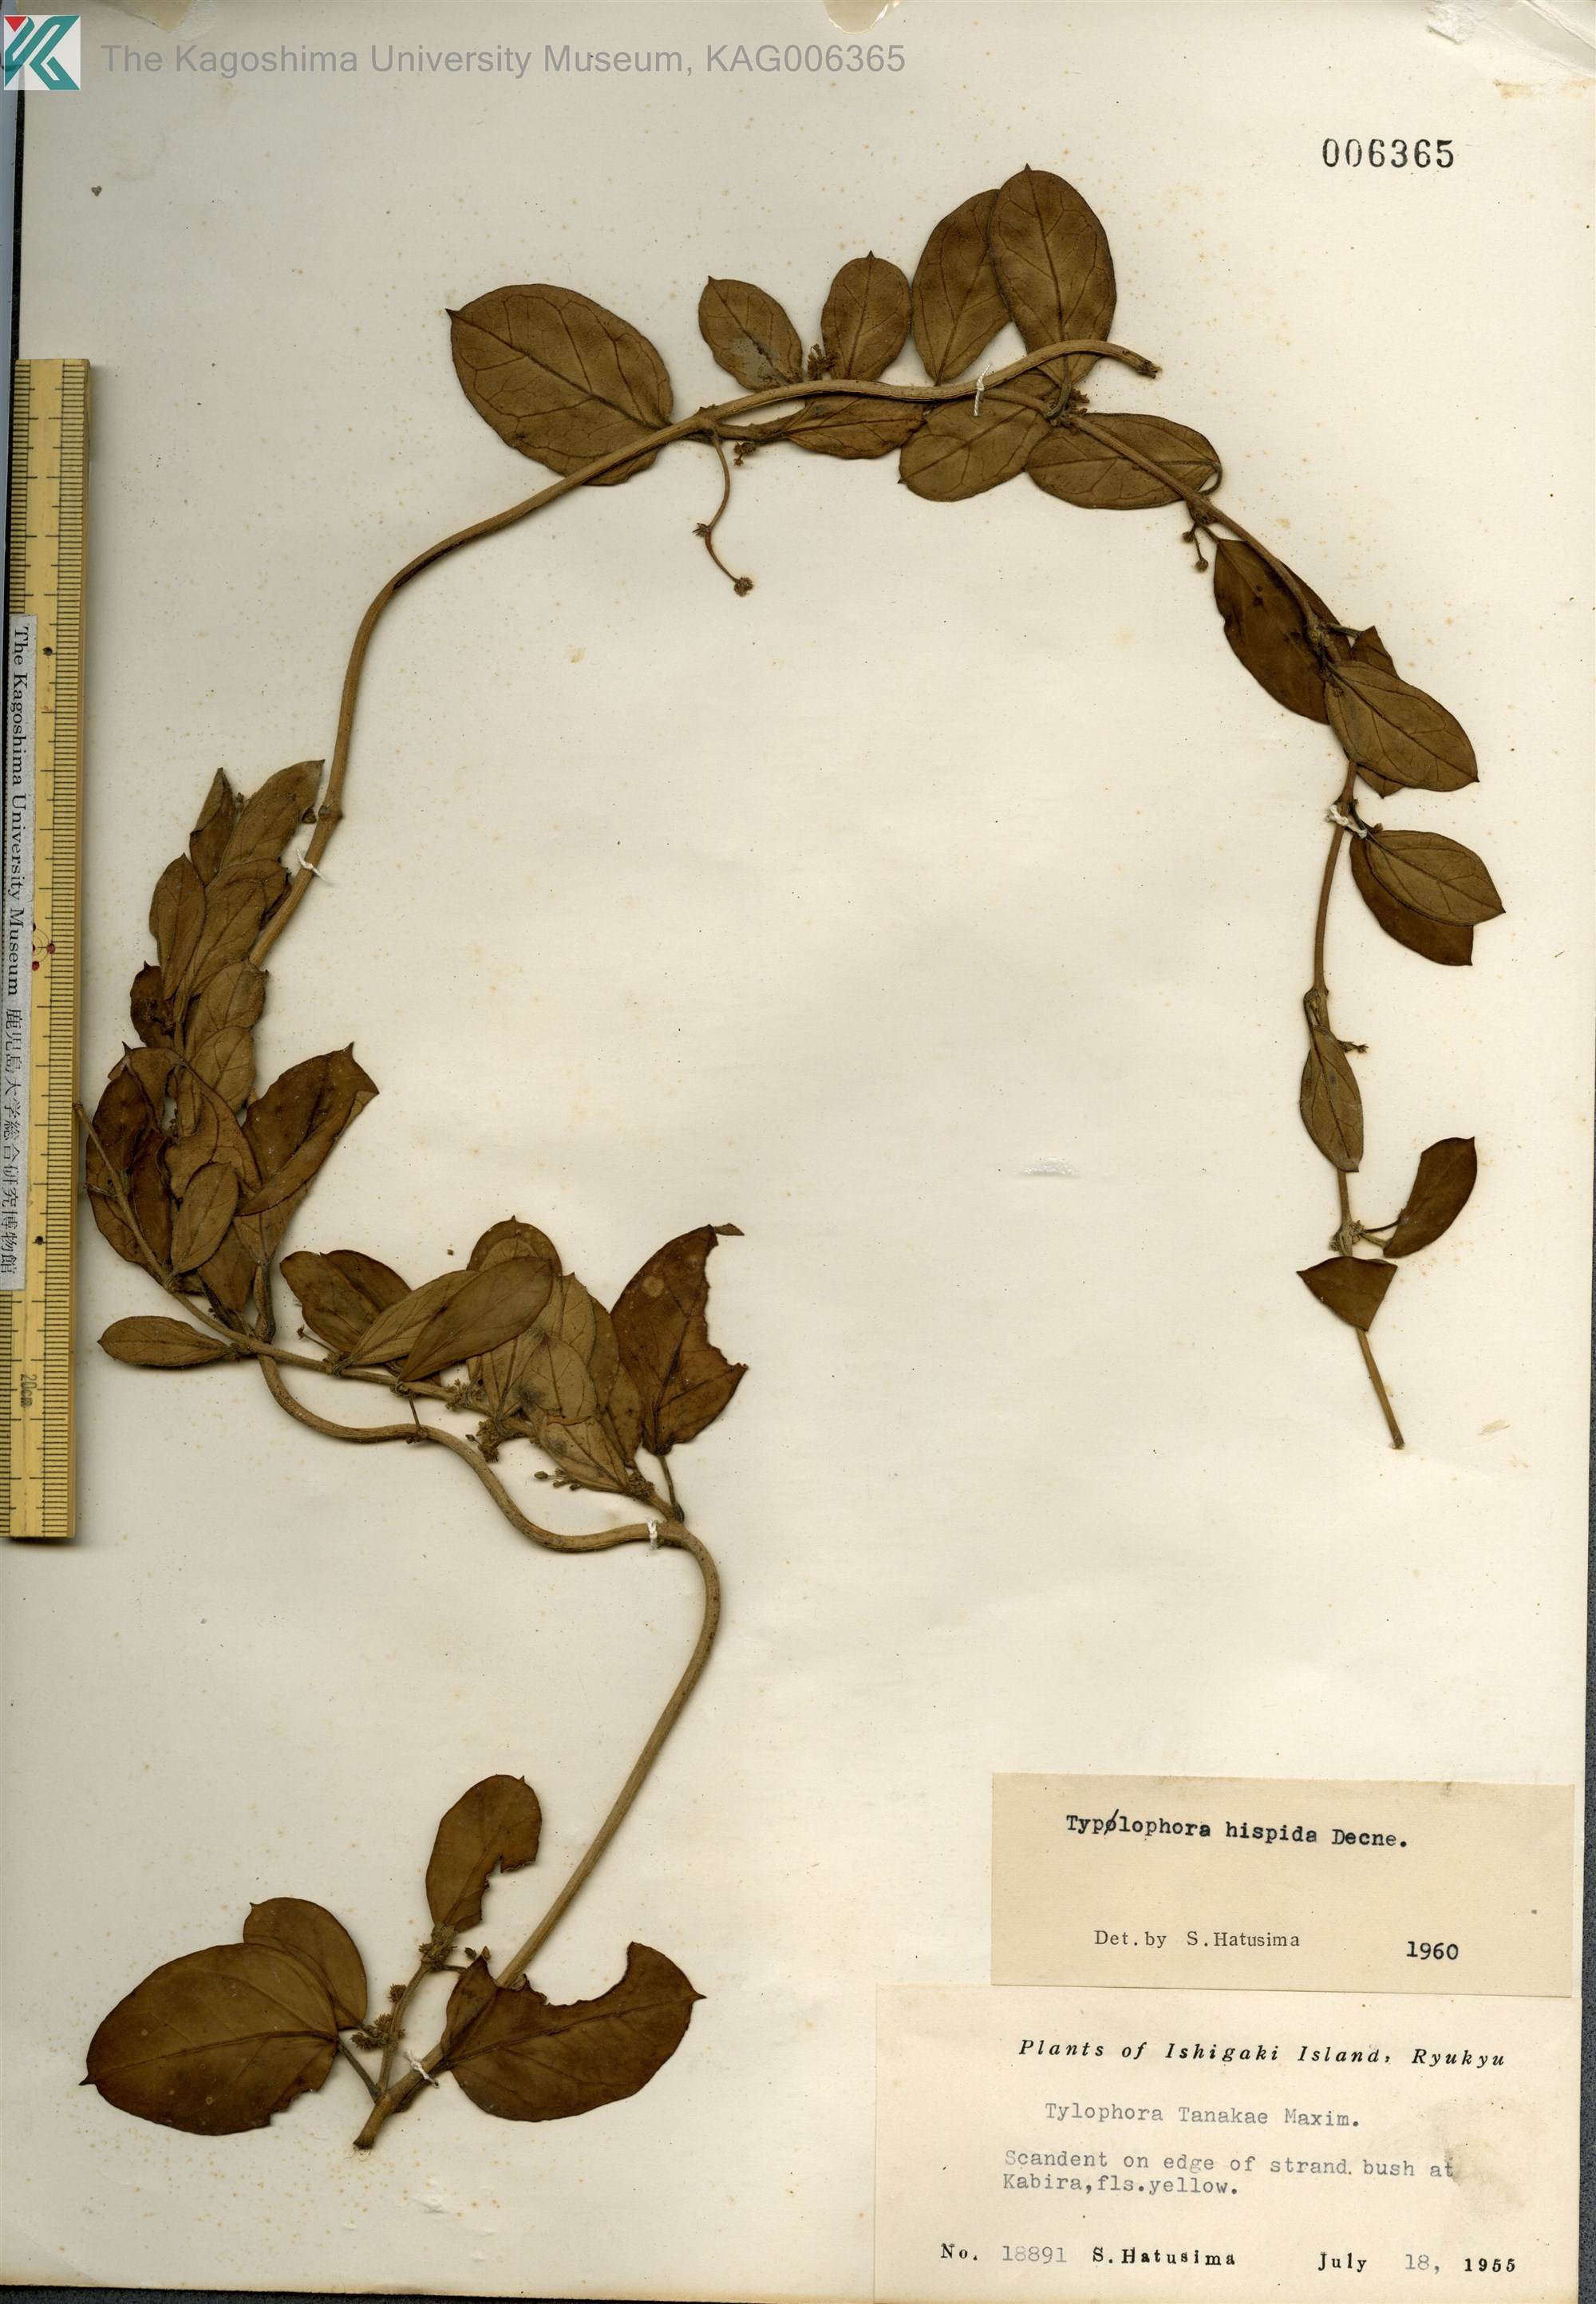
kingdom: Plantae
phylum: Tracheophyta
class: Magnoliopsida
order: Gentianales
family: Apocynaceae
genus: Vincetoxicum
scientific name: Vincetoxicum hirsutum
